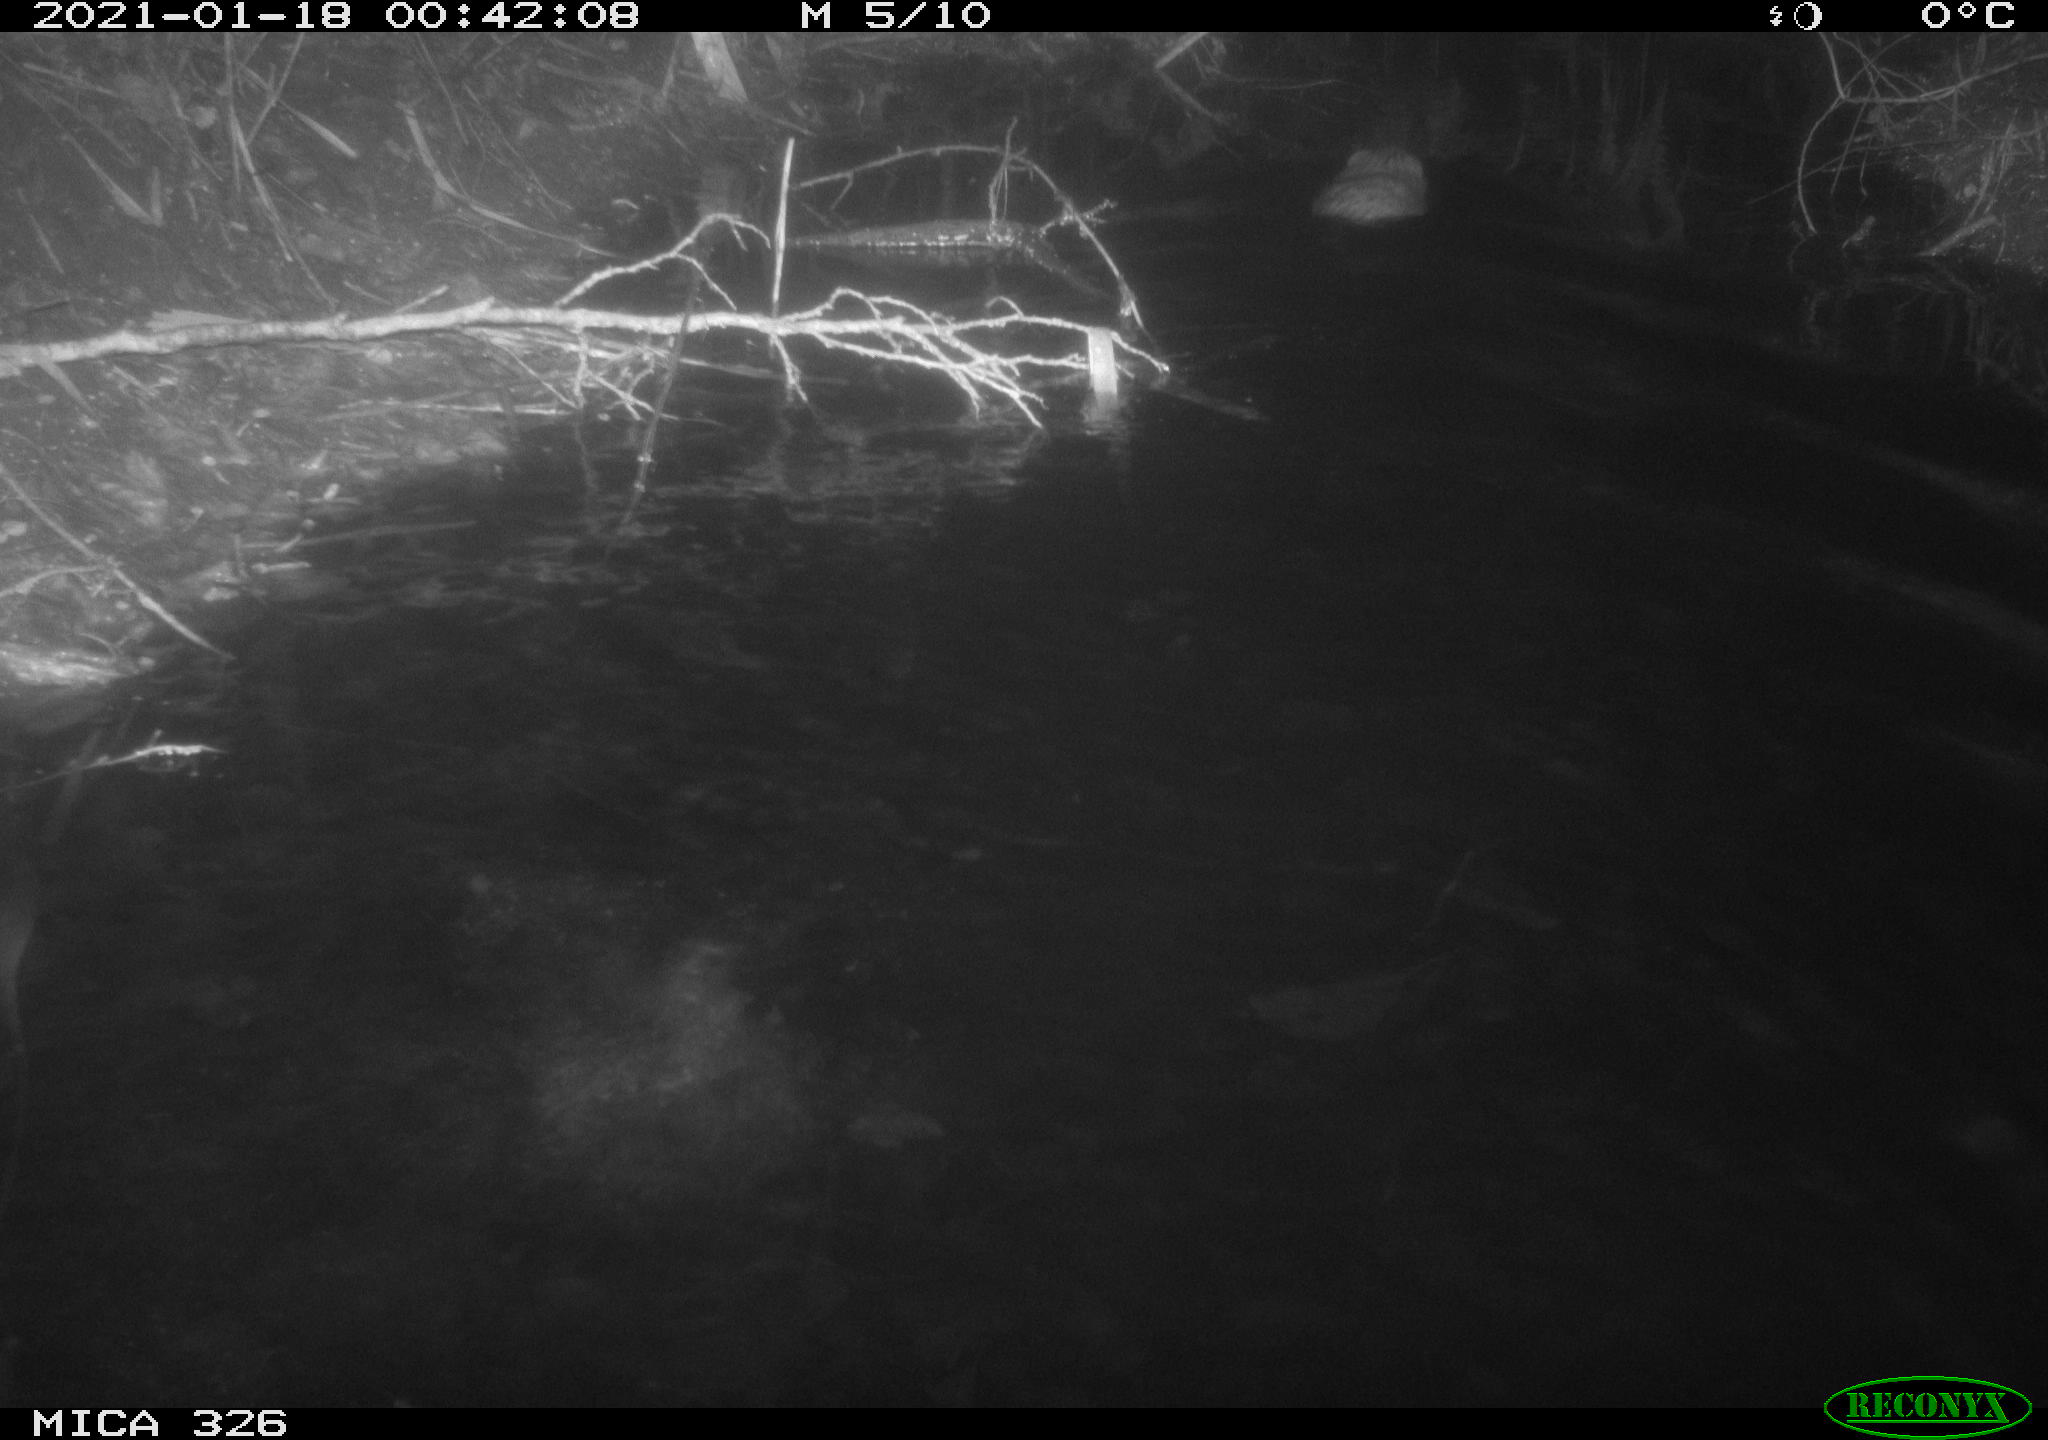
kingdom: Animalia
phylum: Chordata
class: Mammalia
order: Rodentia
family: Cricetidae
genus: Ondatra
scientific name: Ondatra zibethicus
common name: Muskrat
